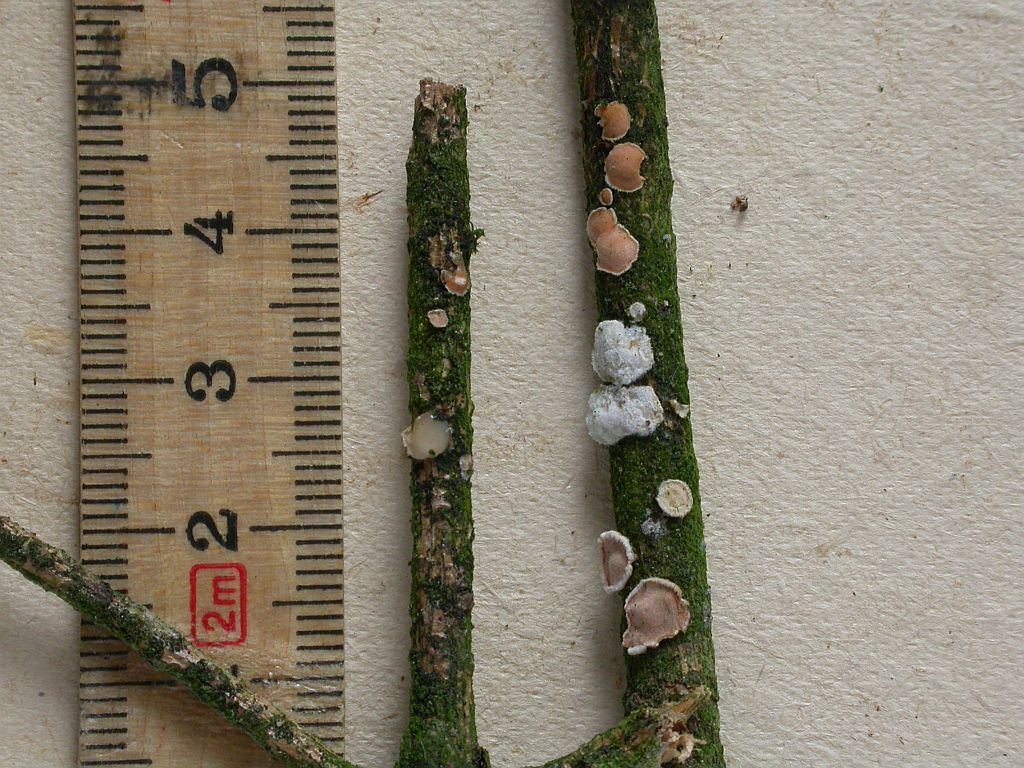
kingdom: Fungi
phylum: Basidiomycota
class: Tremellomycetes
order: Tremellales
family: Tremellaceae
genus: Phaeotremella
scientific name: Phaeotremella simplex
